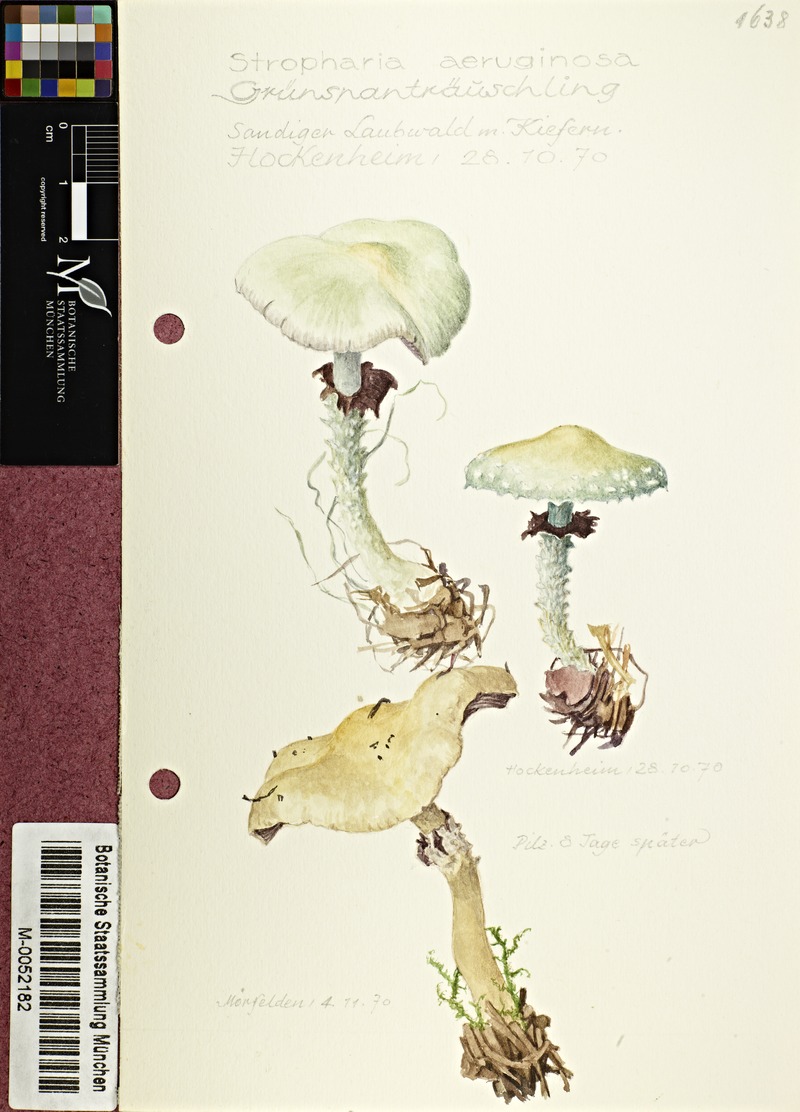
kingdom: Fungi
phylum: Basidiomycota
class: Agaricomycetes
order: Agaricales
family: Strophariaceae
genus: Stropharia
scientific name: Stropharia aeruginosa
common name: Verdigris roundhead
